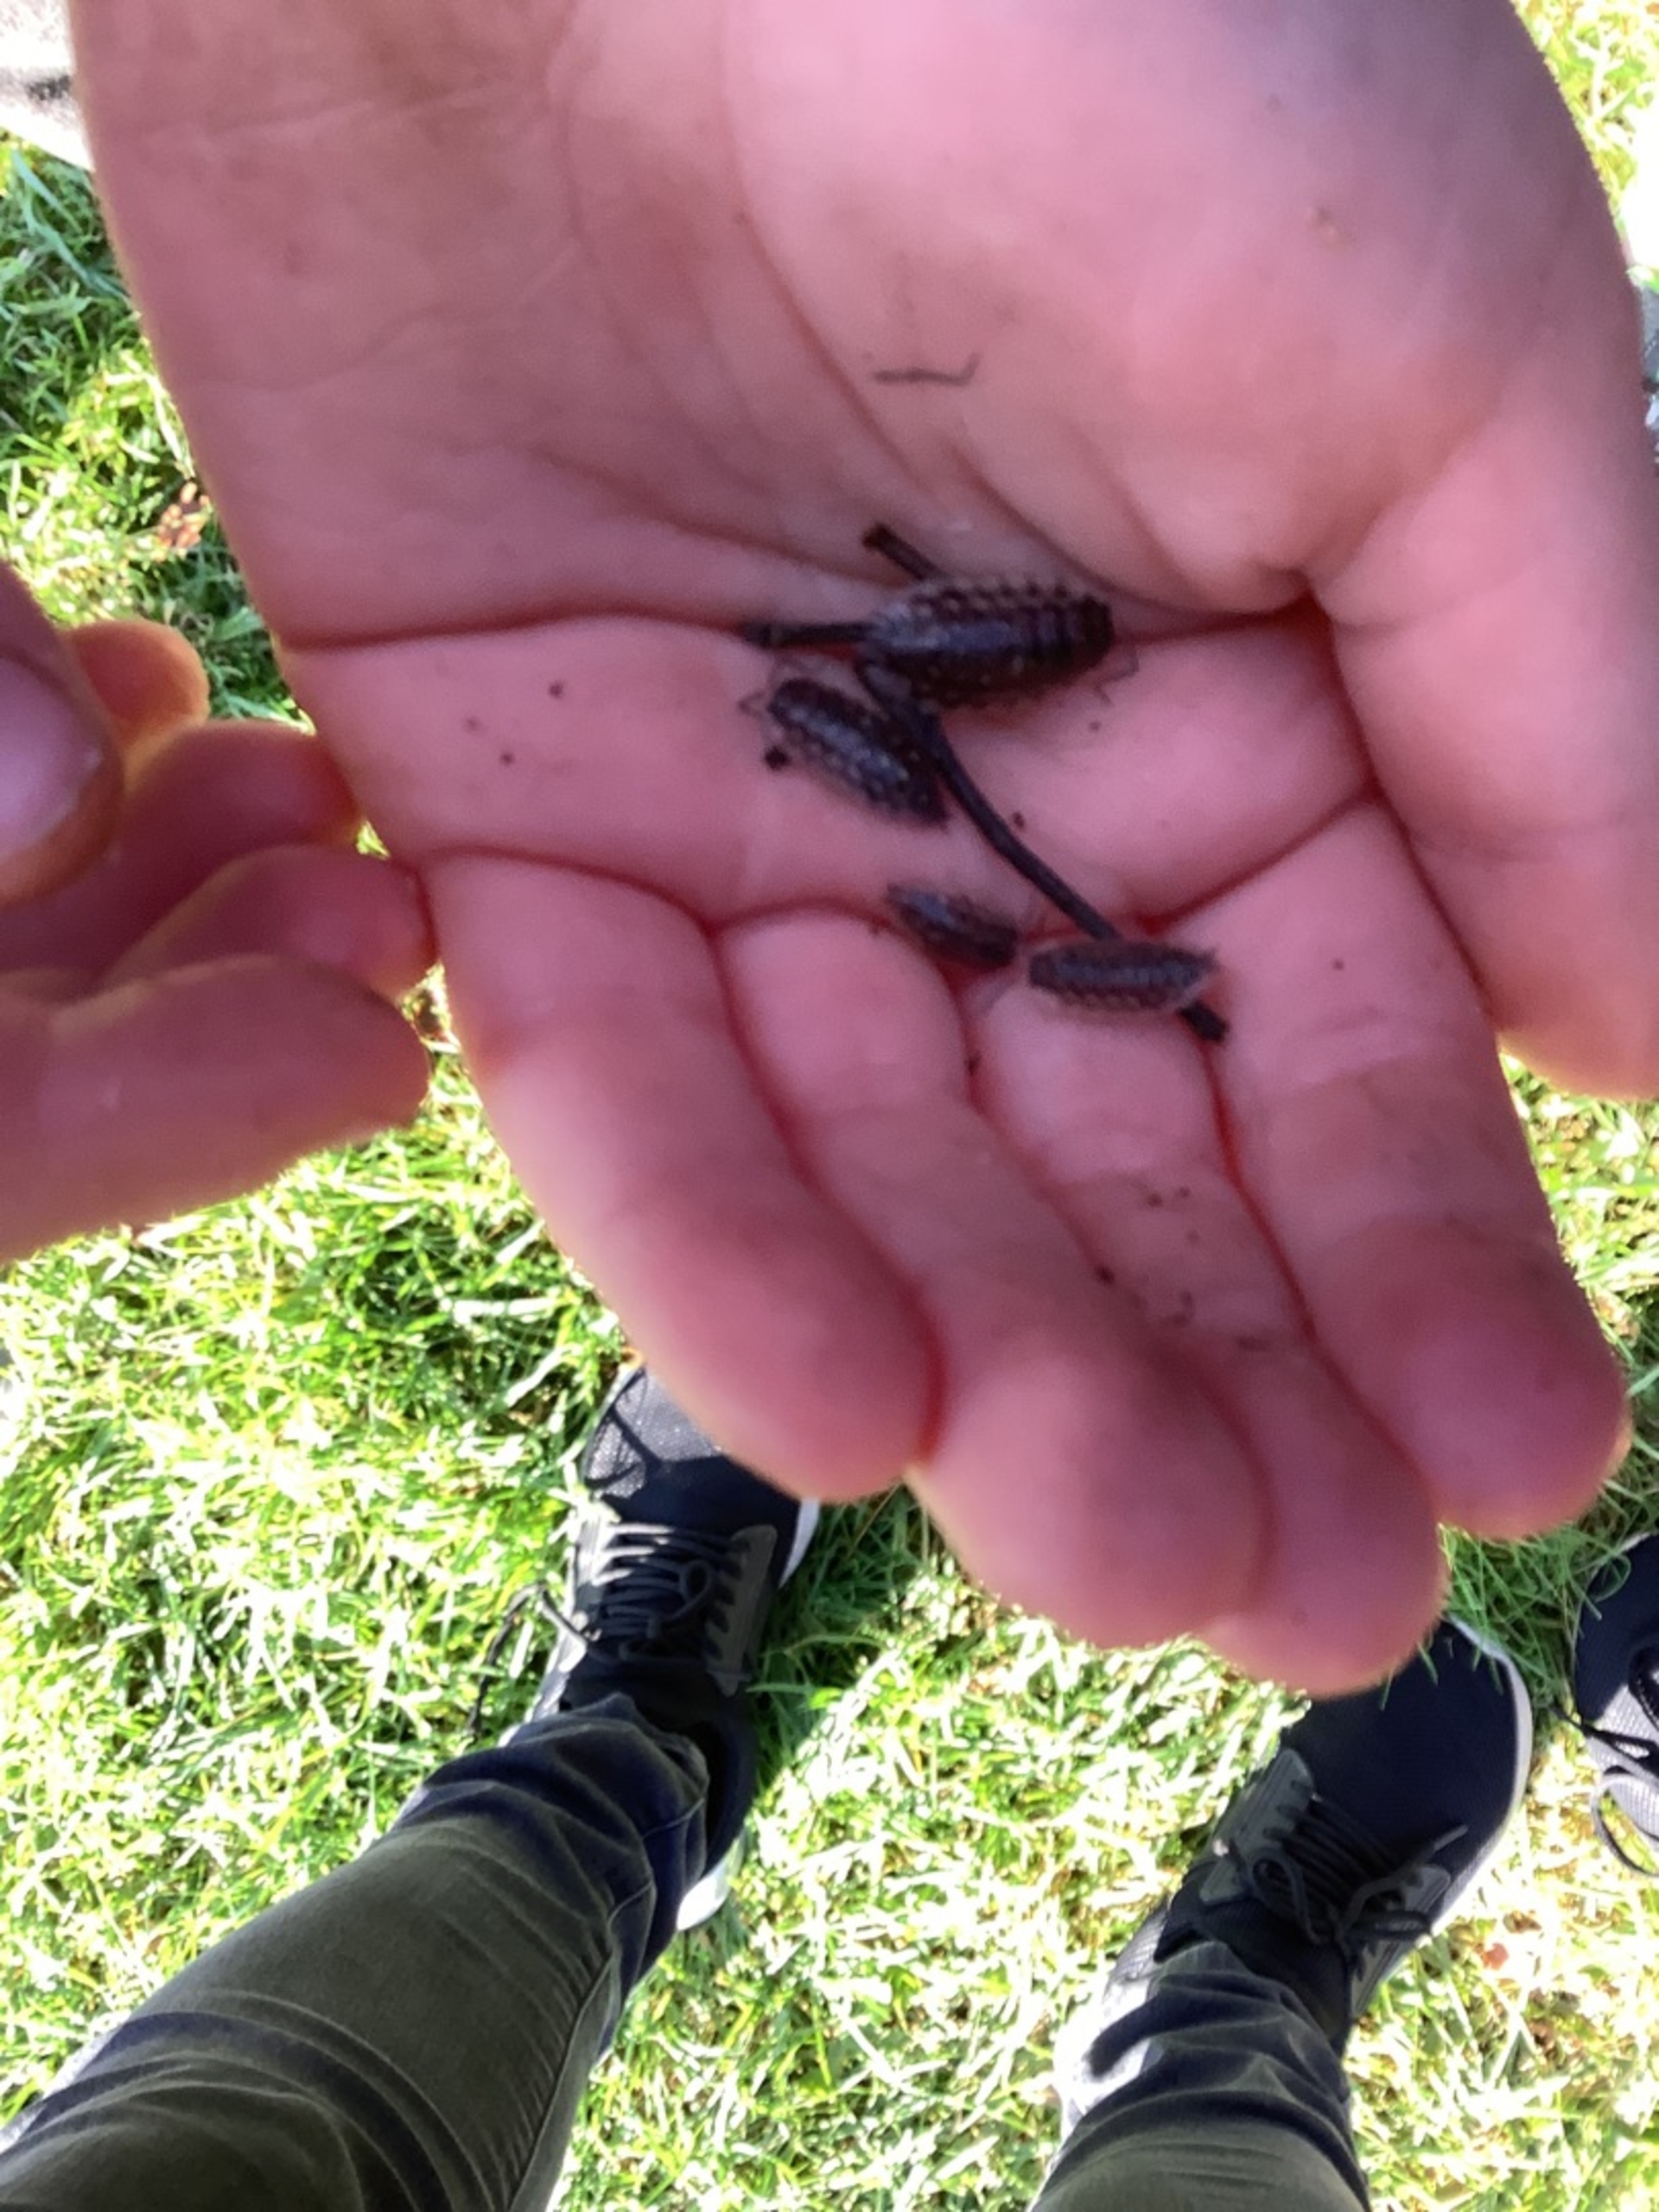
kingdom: Animalia
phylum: Arthropoda
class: Malacostraca
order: Isopoda
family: Oniscidae
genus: Oniscus
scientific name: Oniscus asellus
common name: Glat bænkebider
